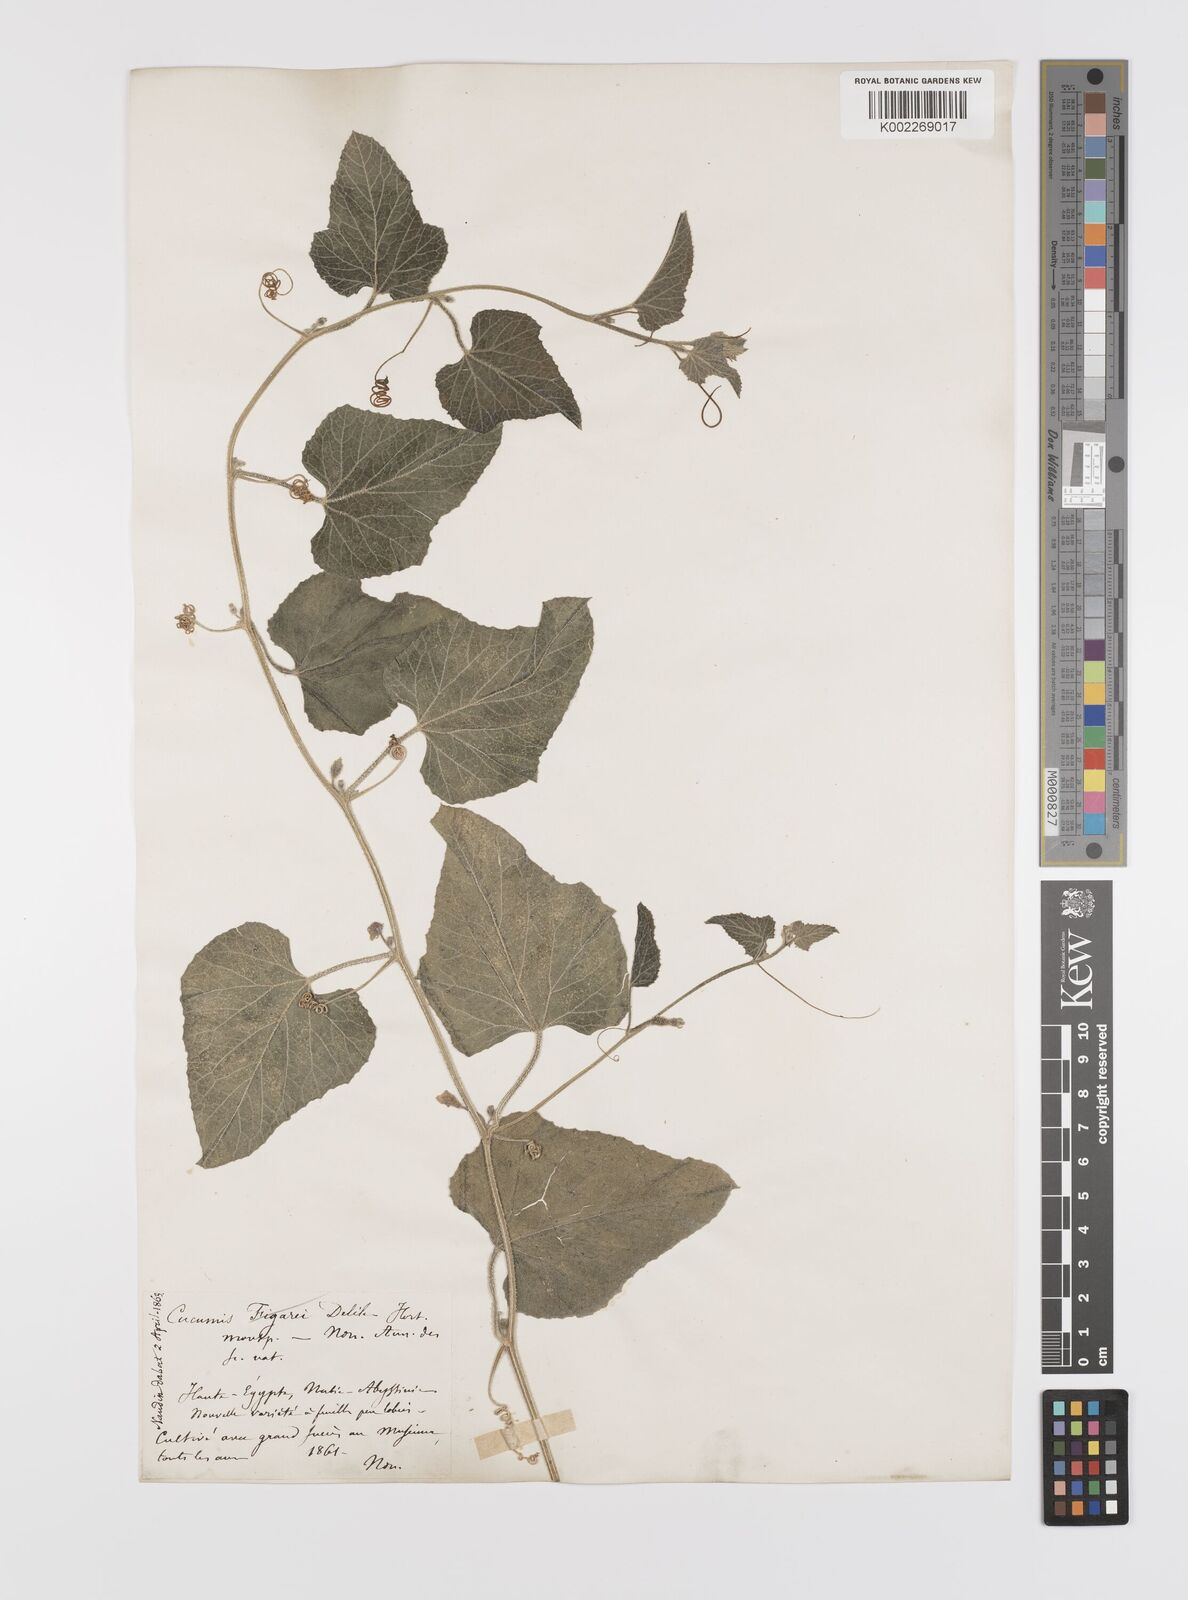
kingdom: Plantae
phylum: Tracheophyta
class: Magnoliopsida
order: Cucurbitales
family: Cucurbitaceae
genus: Cucumis
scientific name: Cucumis pustulatus
